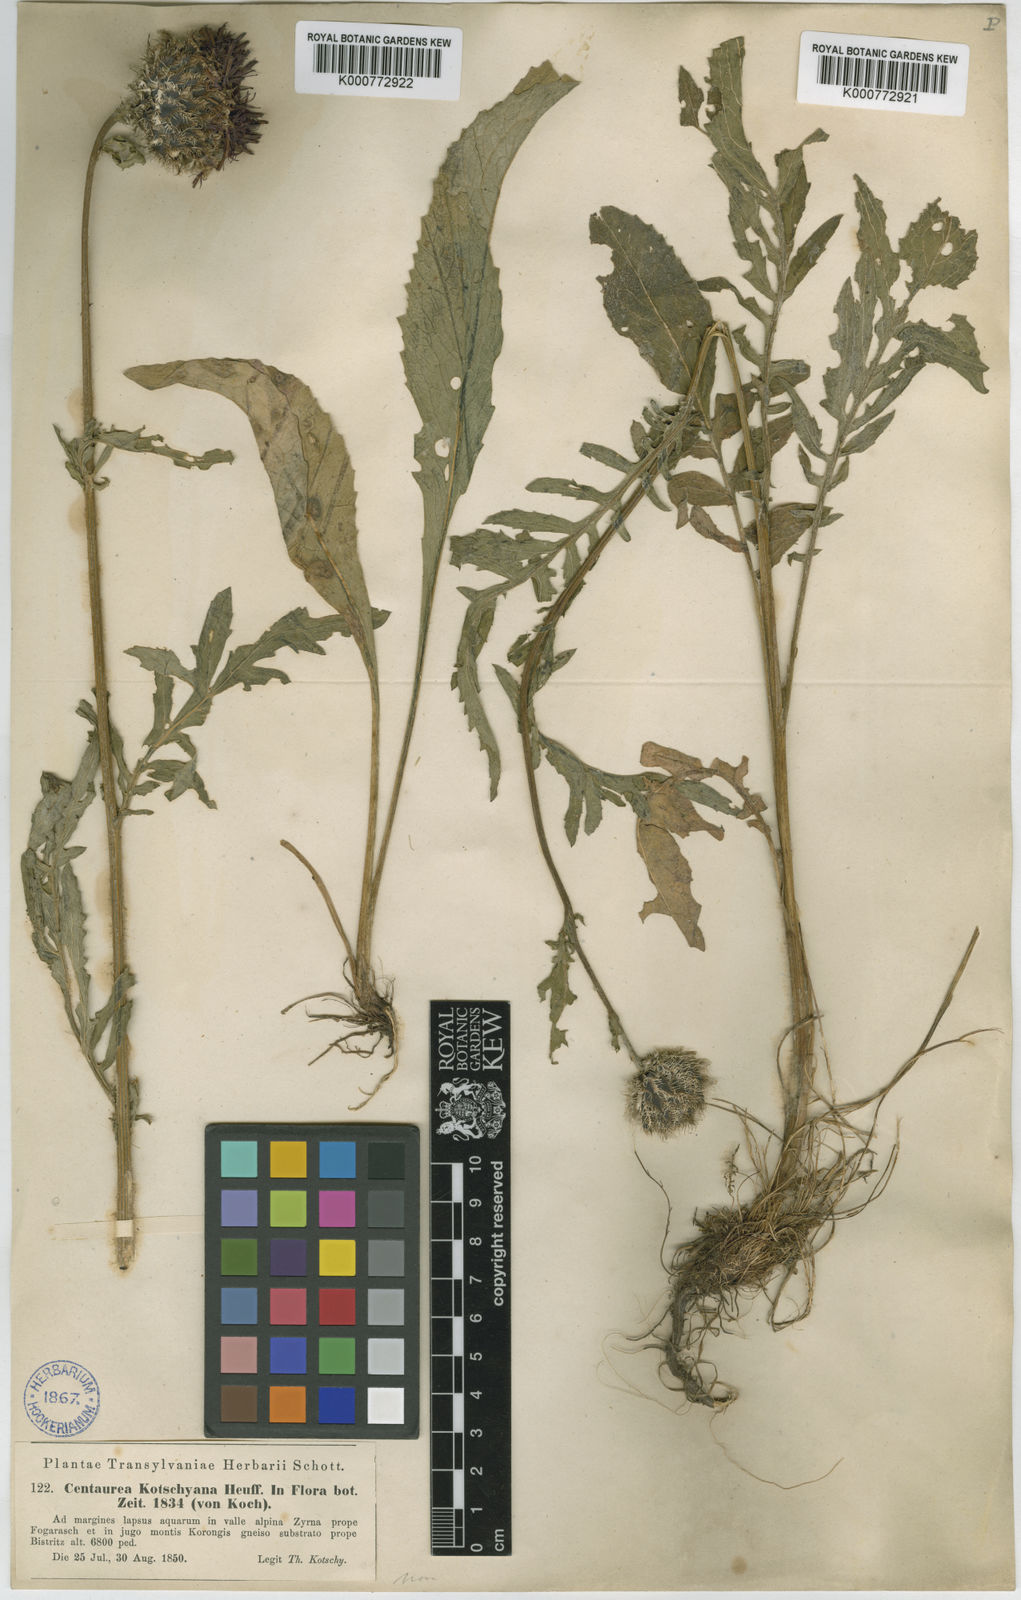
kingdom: Plantae
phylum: Tracheophyta
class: Magnoliopsida
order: Asterales
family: Asteraceae
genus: Centaurea
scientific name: Centaurea kotschyana
